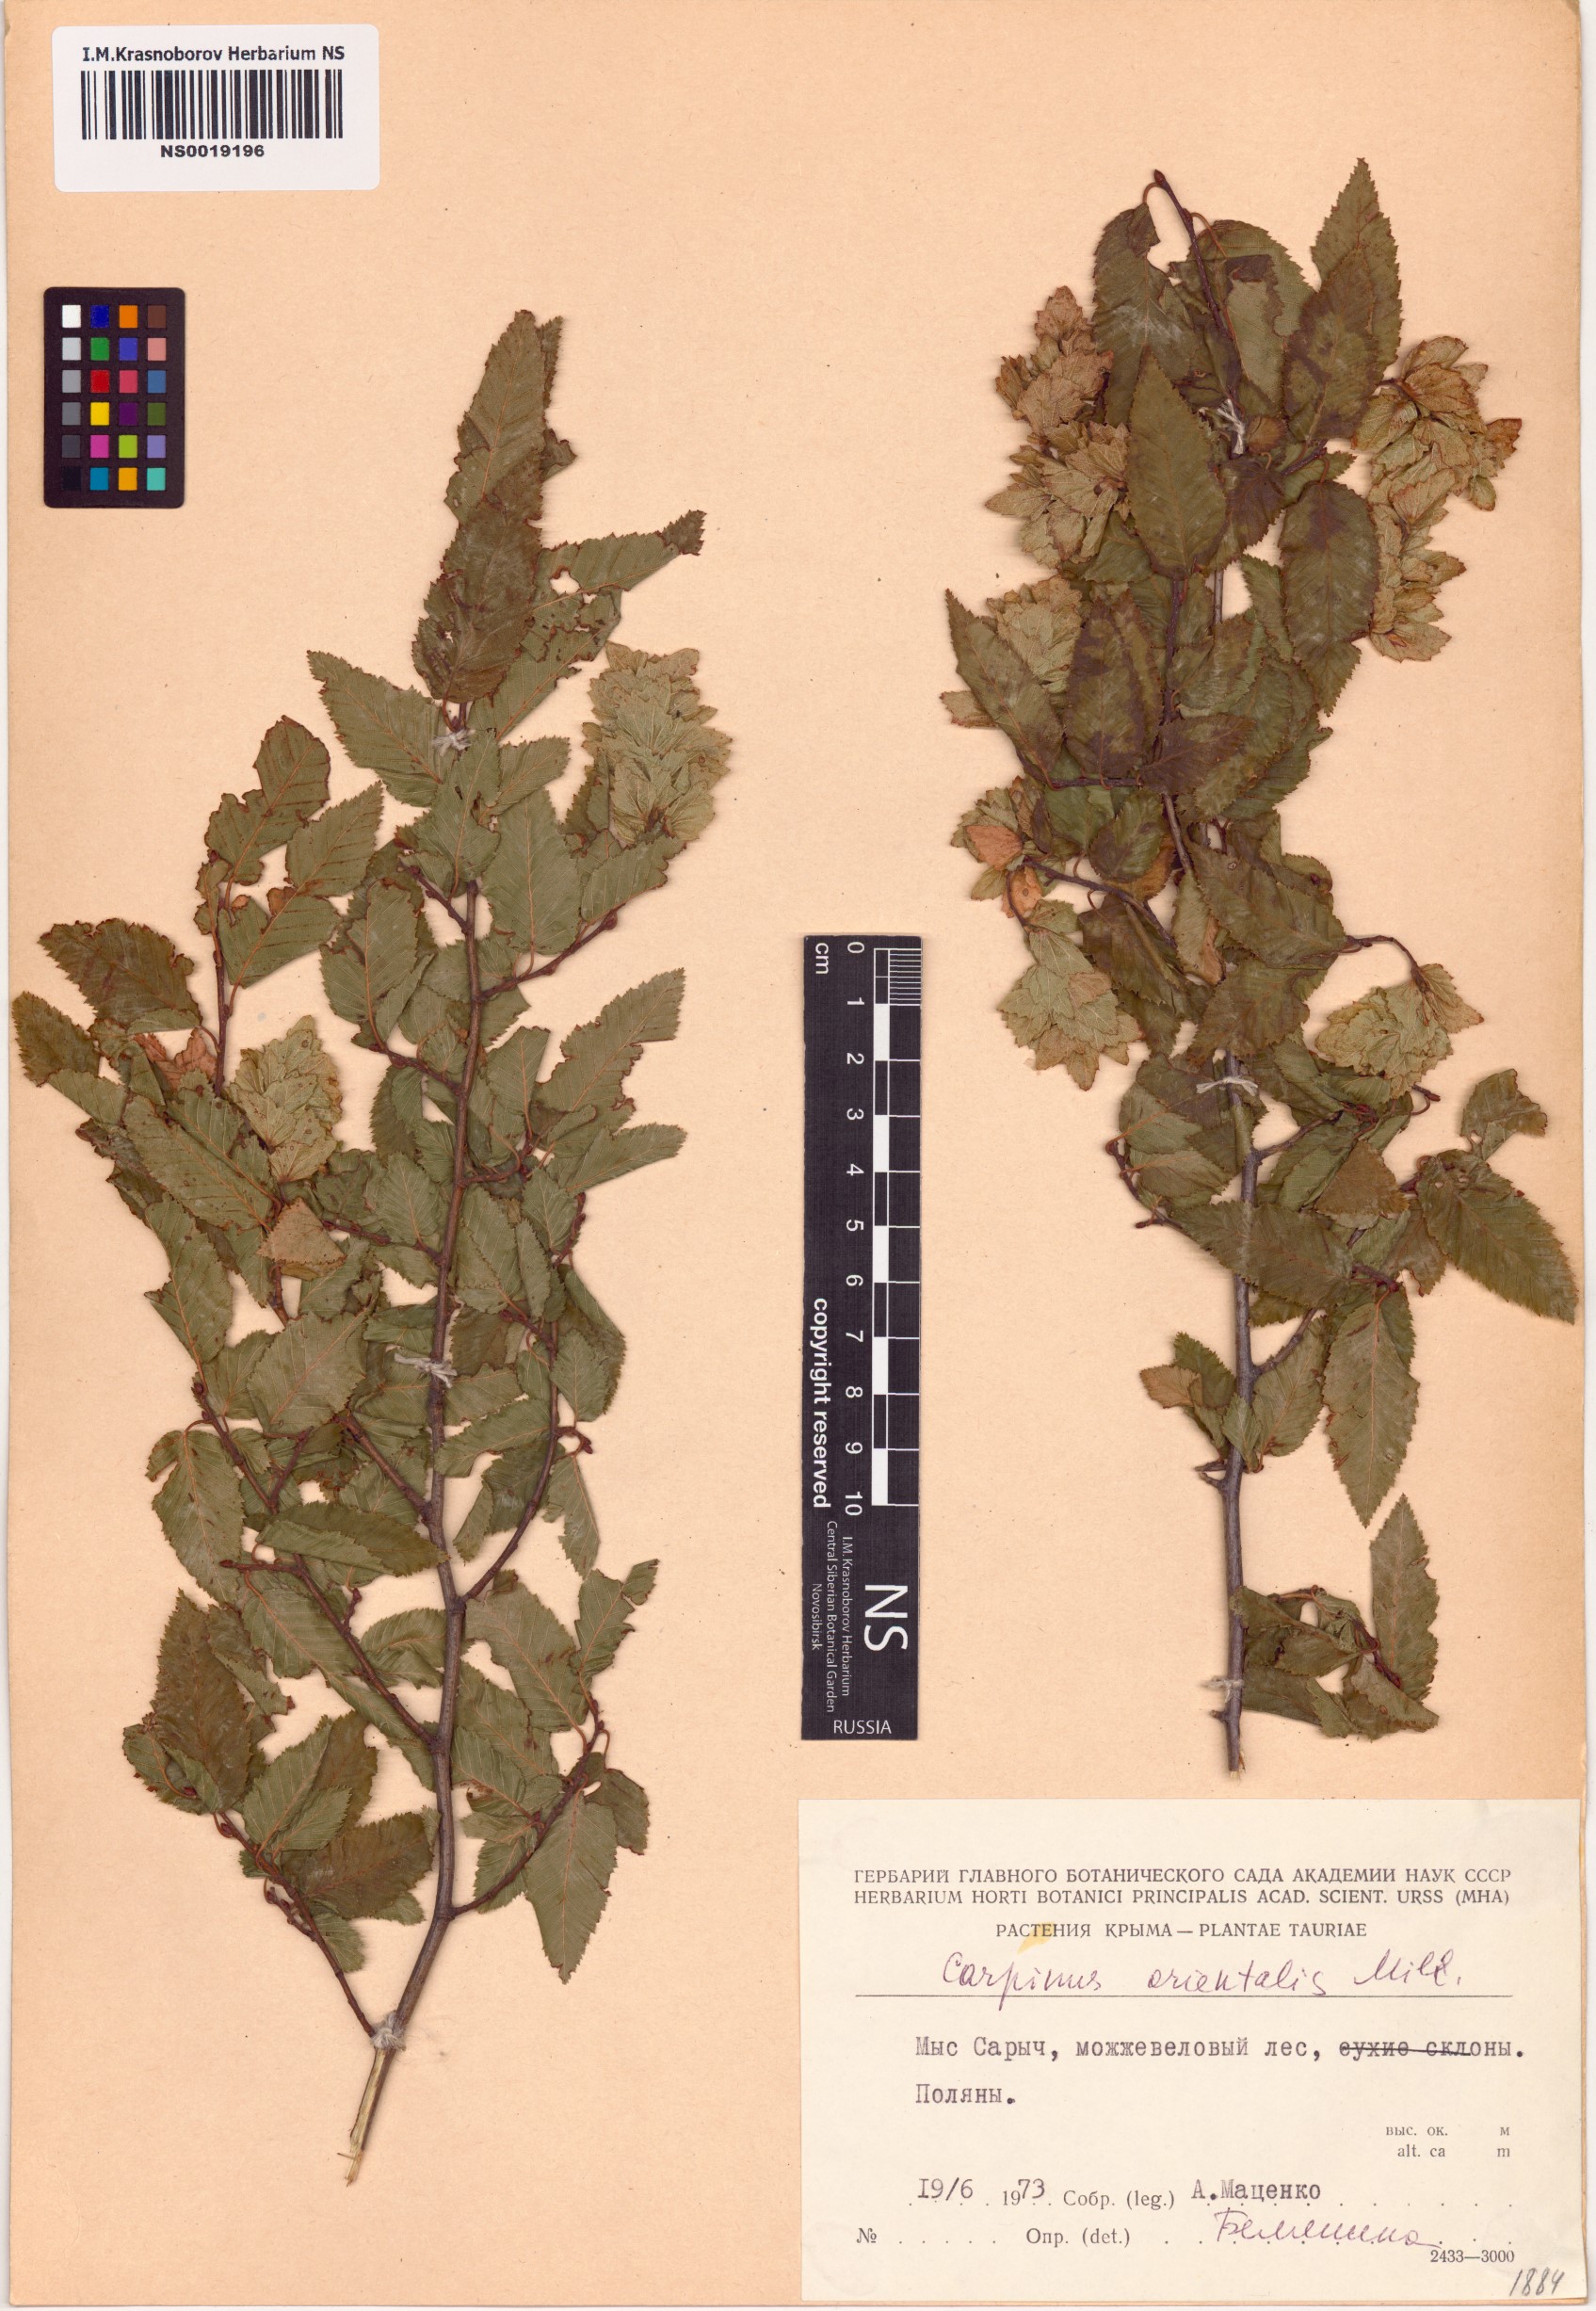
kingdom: Plantae
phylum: Tracheophyta
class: Magnoliopsida
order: Fagales
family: Betulaceae
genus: Carpinus
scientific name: Carpinus orientalis
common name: Eastern hornbeam
